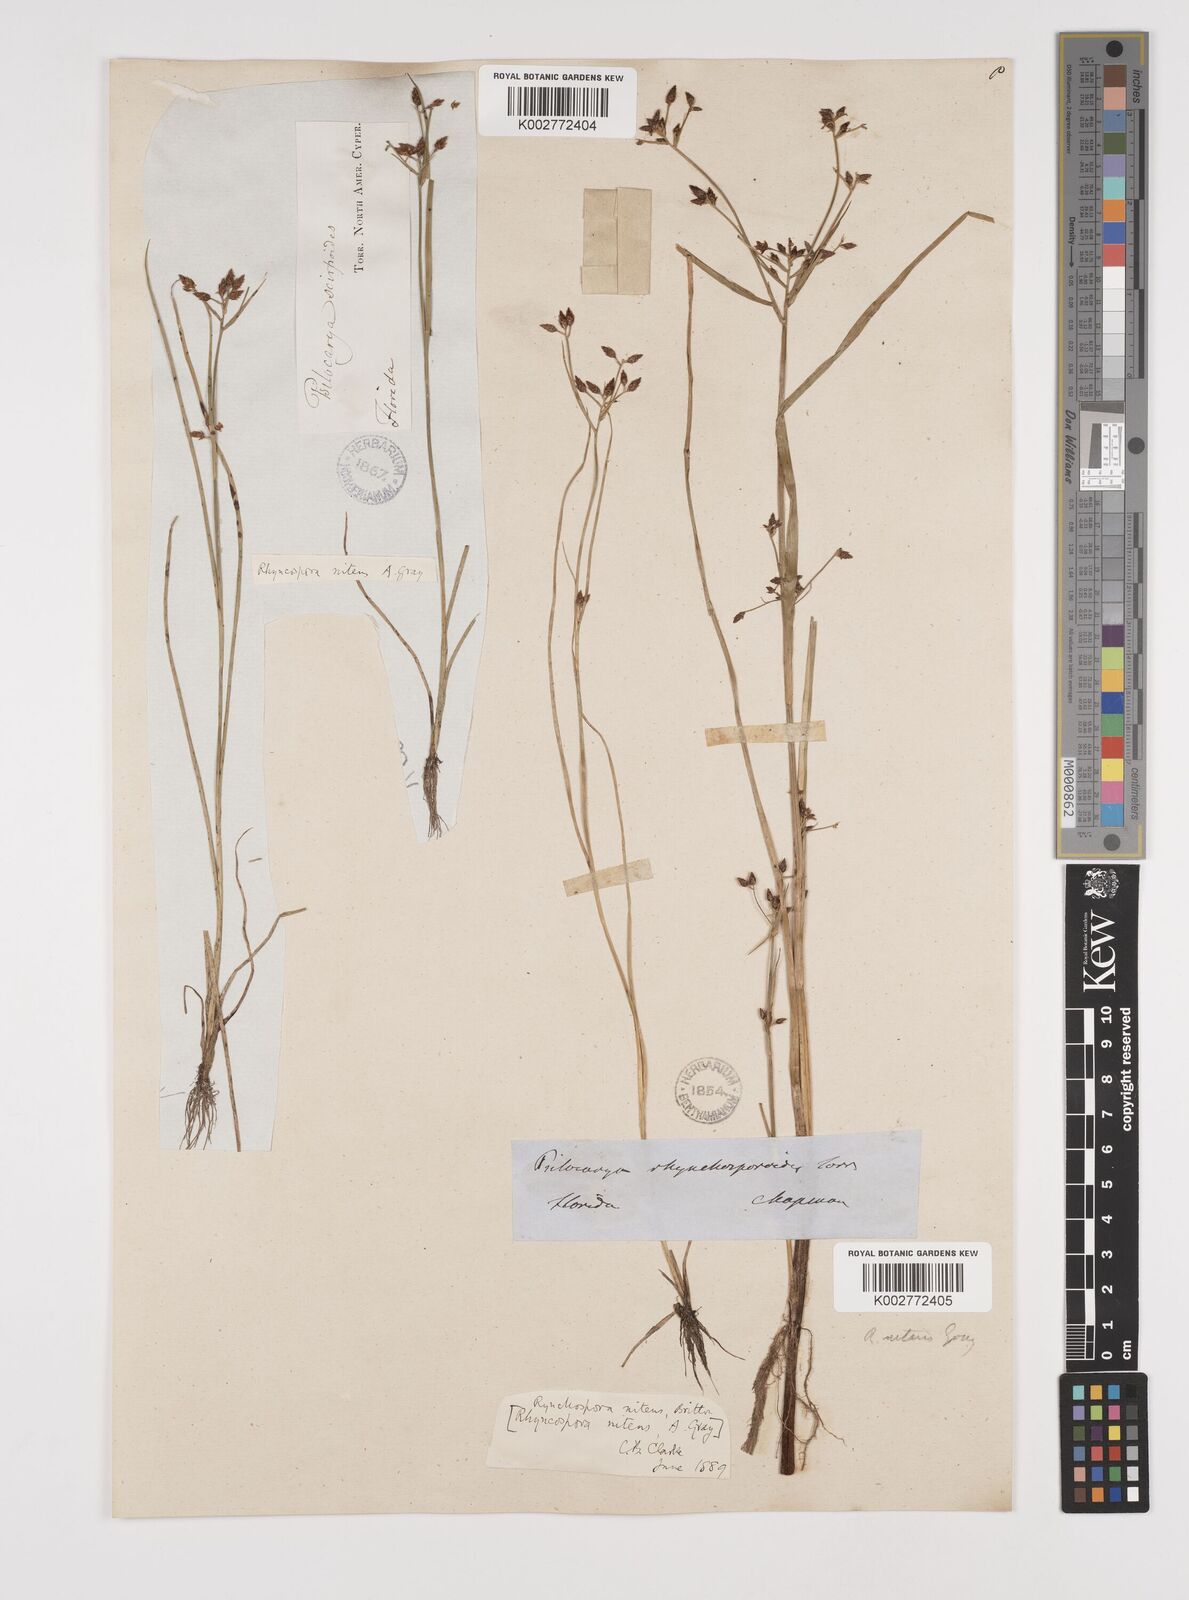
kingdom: Plantae
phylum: Tracheophyta
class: Liliopsida
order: Poales
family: Cyperaceae
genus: Rhynchospora
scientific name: Rhynchospora nitens
